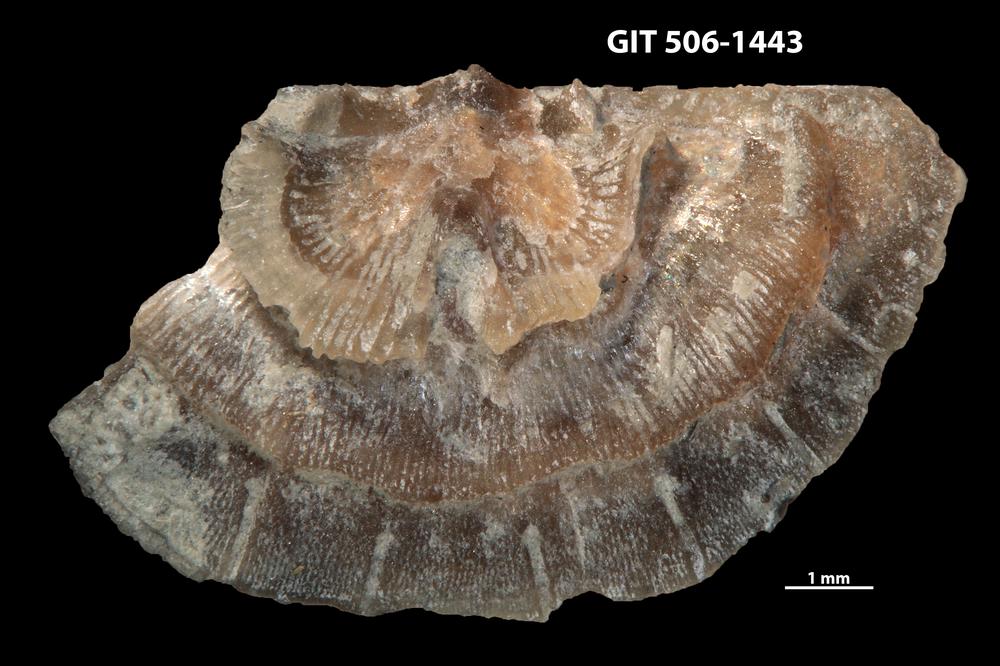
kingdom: Animalia
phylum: Brachiopoda
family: Leptellinidae
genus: Leangella
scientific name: Leangella Leptaena segmentum
